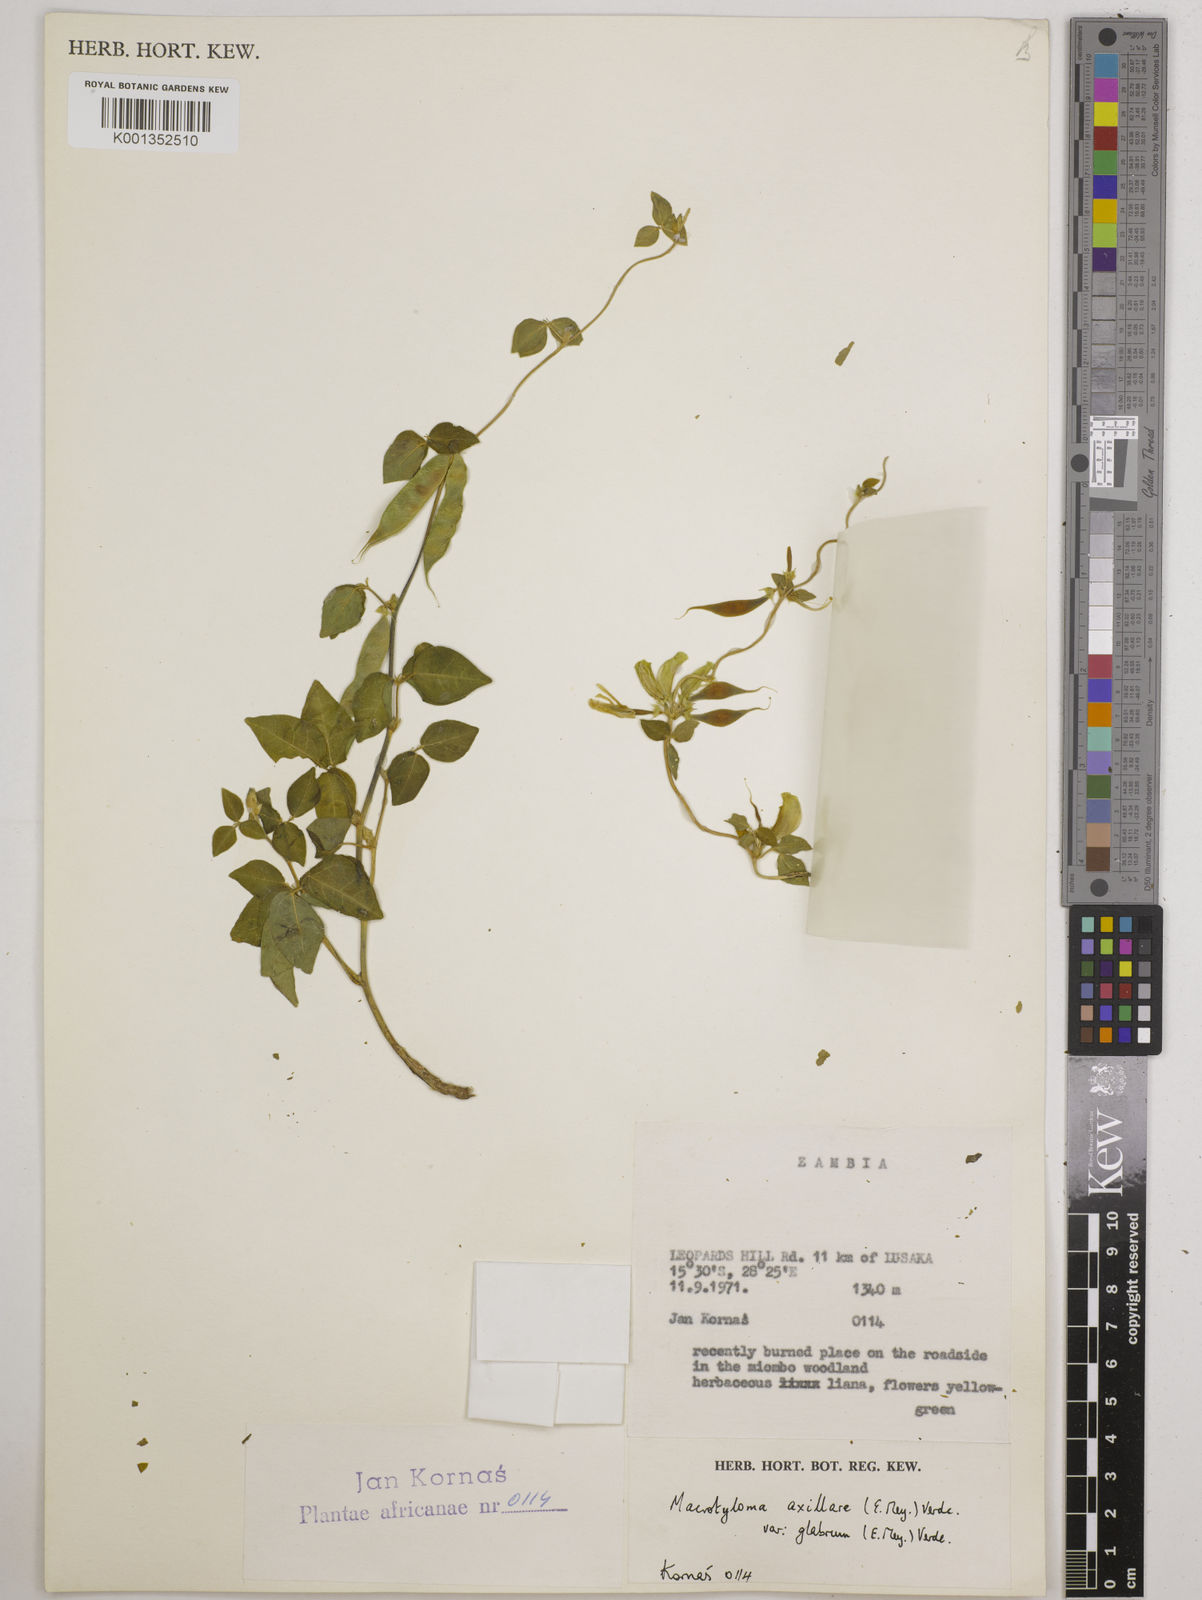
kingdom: Plantae
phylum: Tracheophyta
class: Magnoliopsida
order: Fabales
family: Fabaceae
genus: Macrotyloma
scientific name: Macrotyloma
